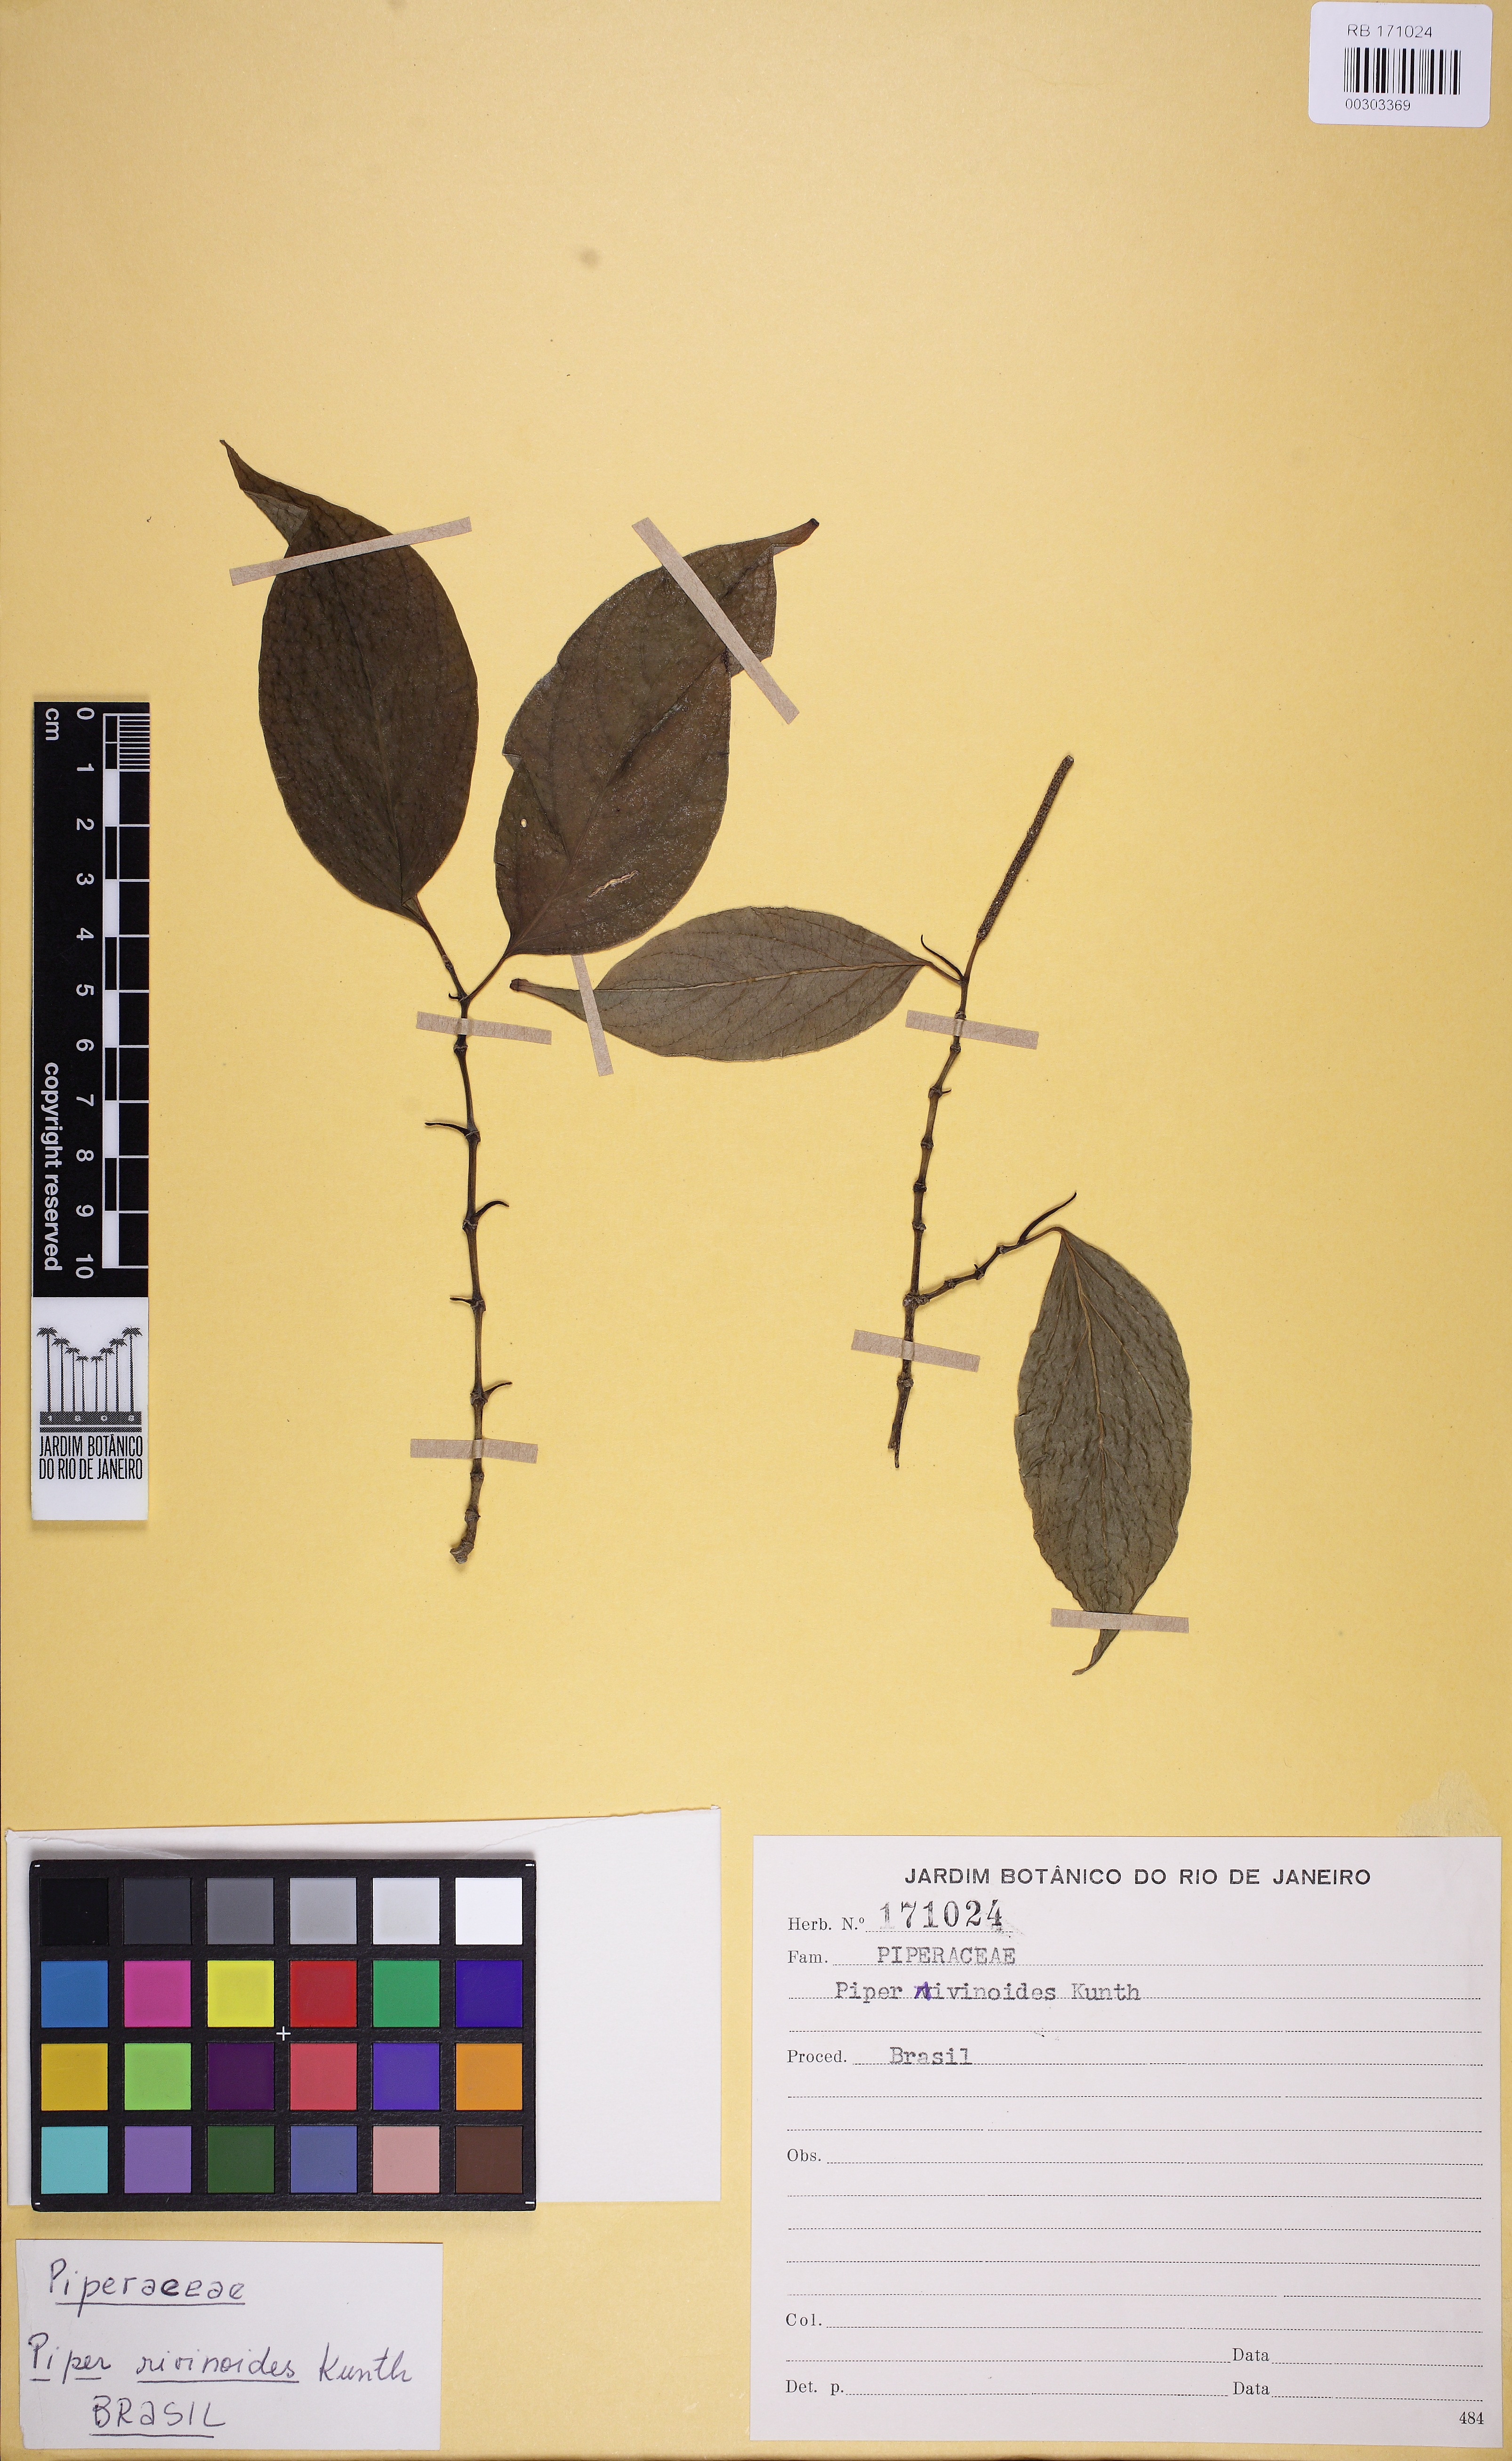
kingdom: Plantae
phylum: Tracheophyta
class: Magnoliopsida
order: Piperales
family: Piperaceae
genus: Piper
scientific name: Piper rivinoides
